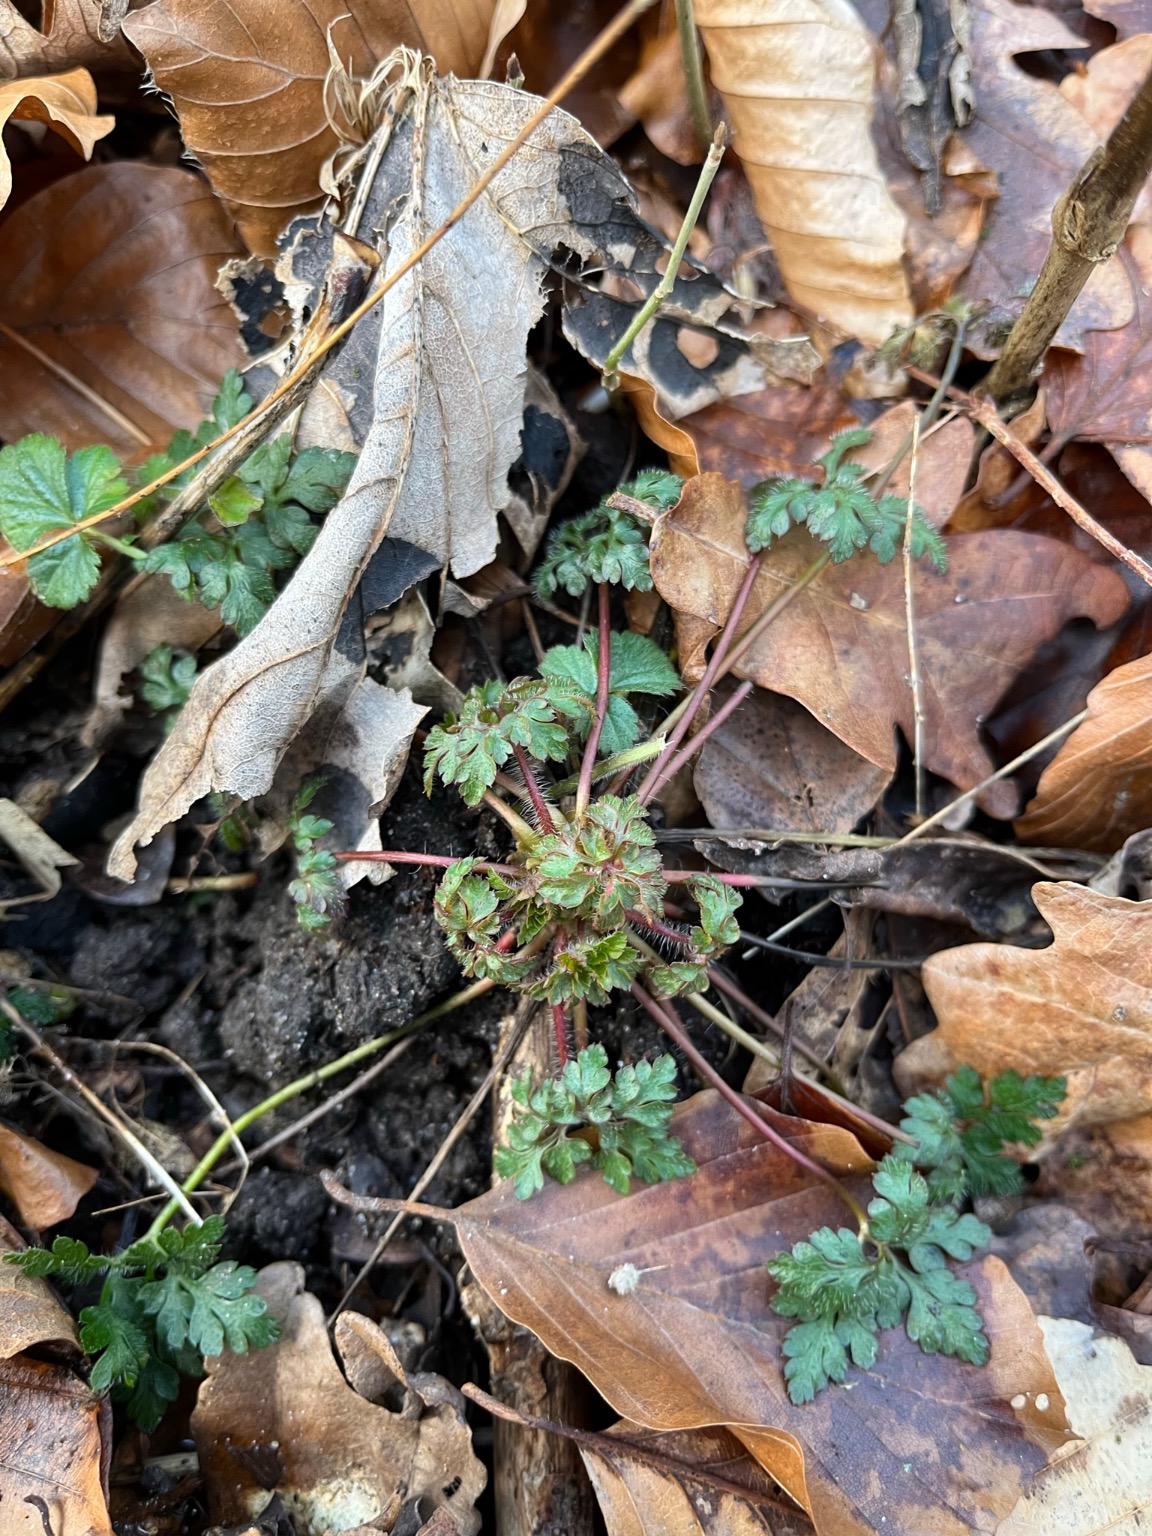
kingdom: Plantae
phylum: Tracheophyta
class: Magnoliopsida
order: Geraniales
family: Geraniaceae
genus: Geranium
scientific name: Geranium robertianum
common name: Stinkende storkenæb
